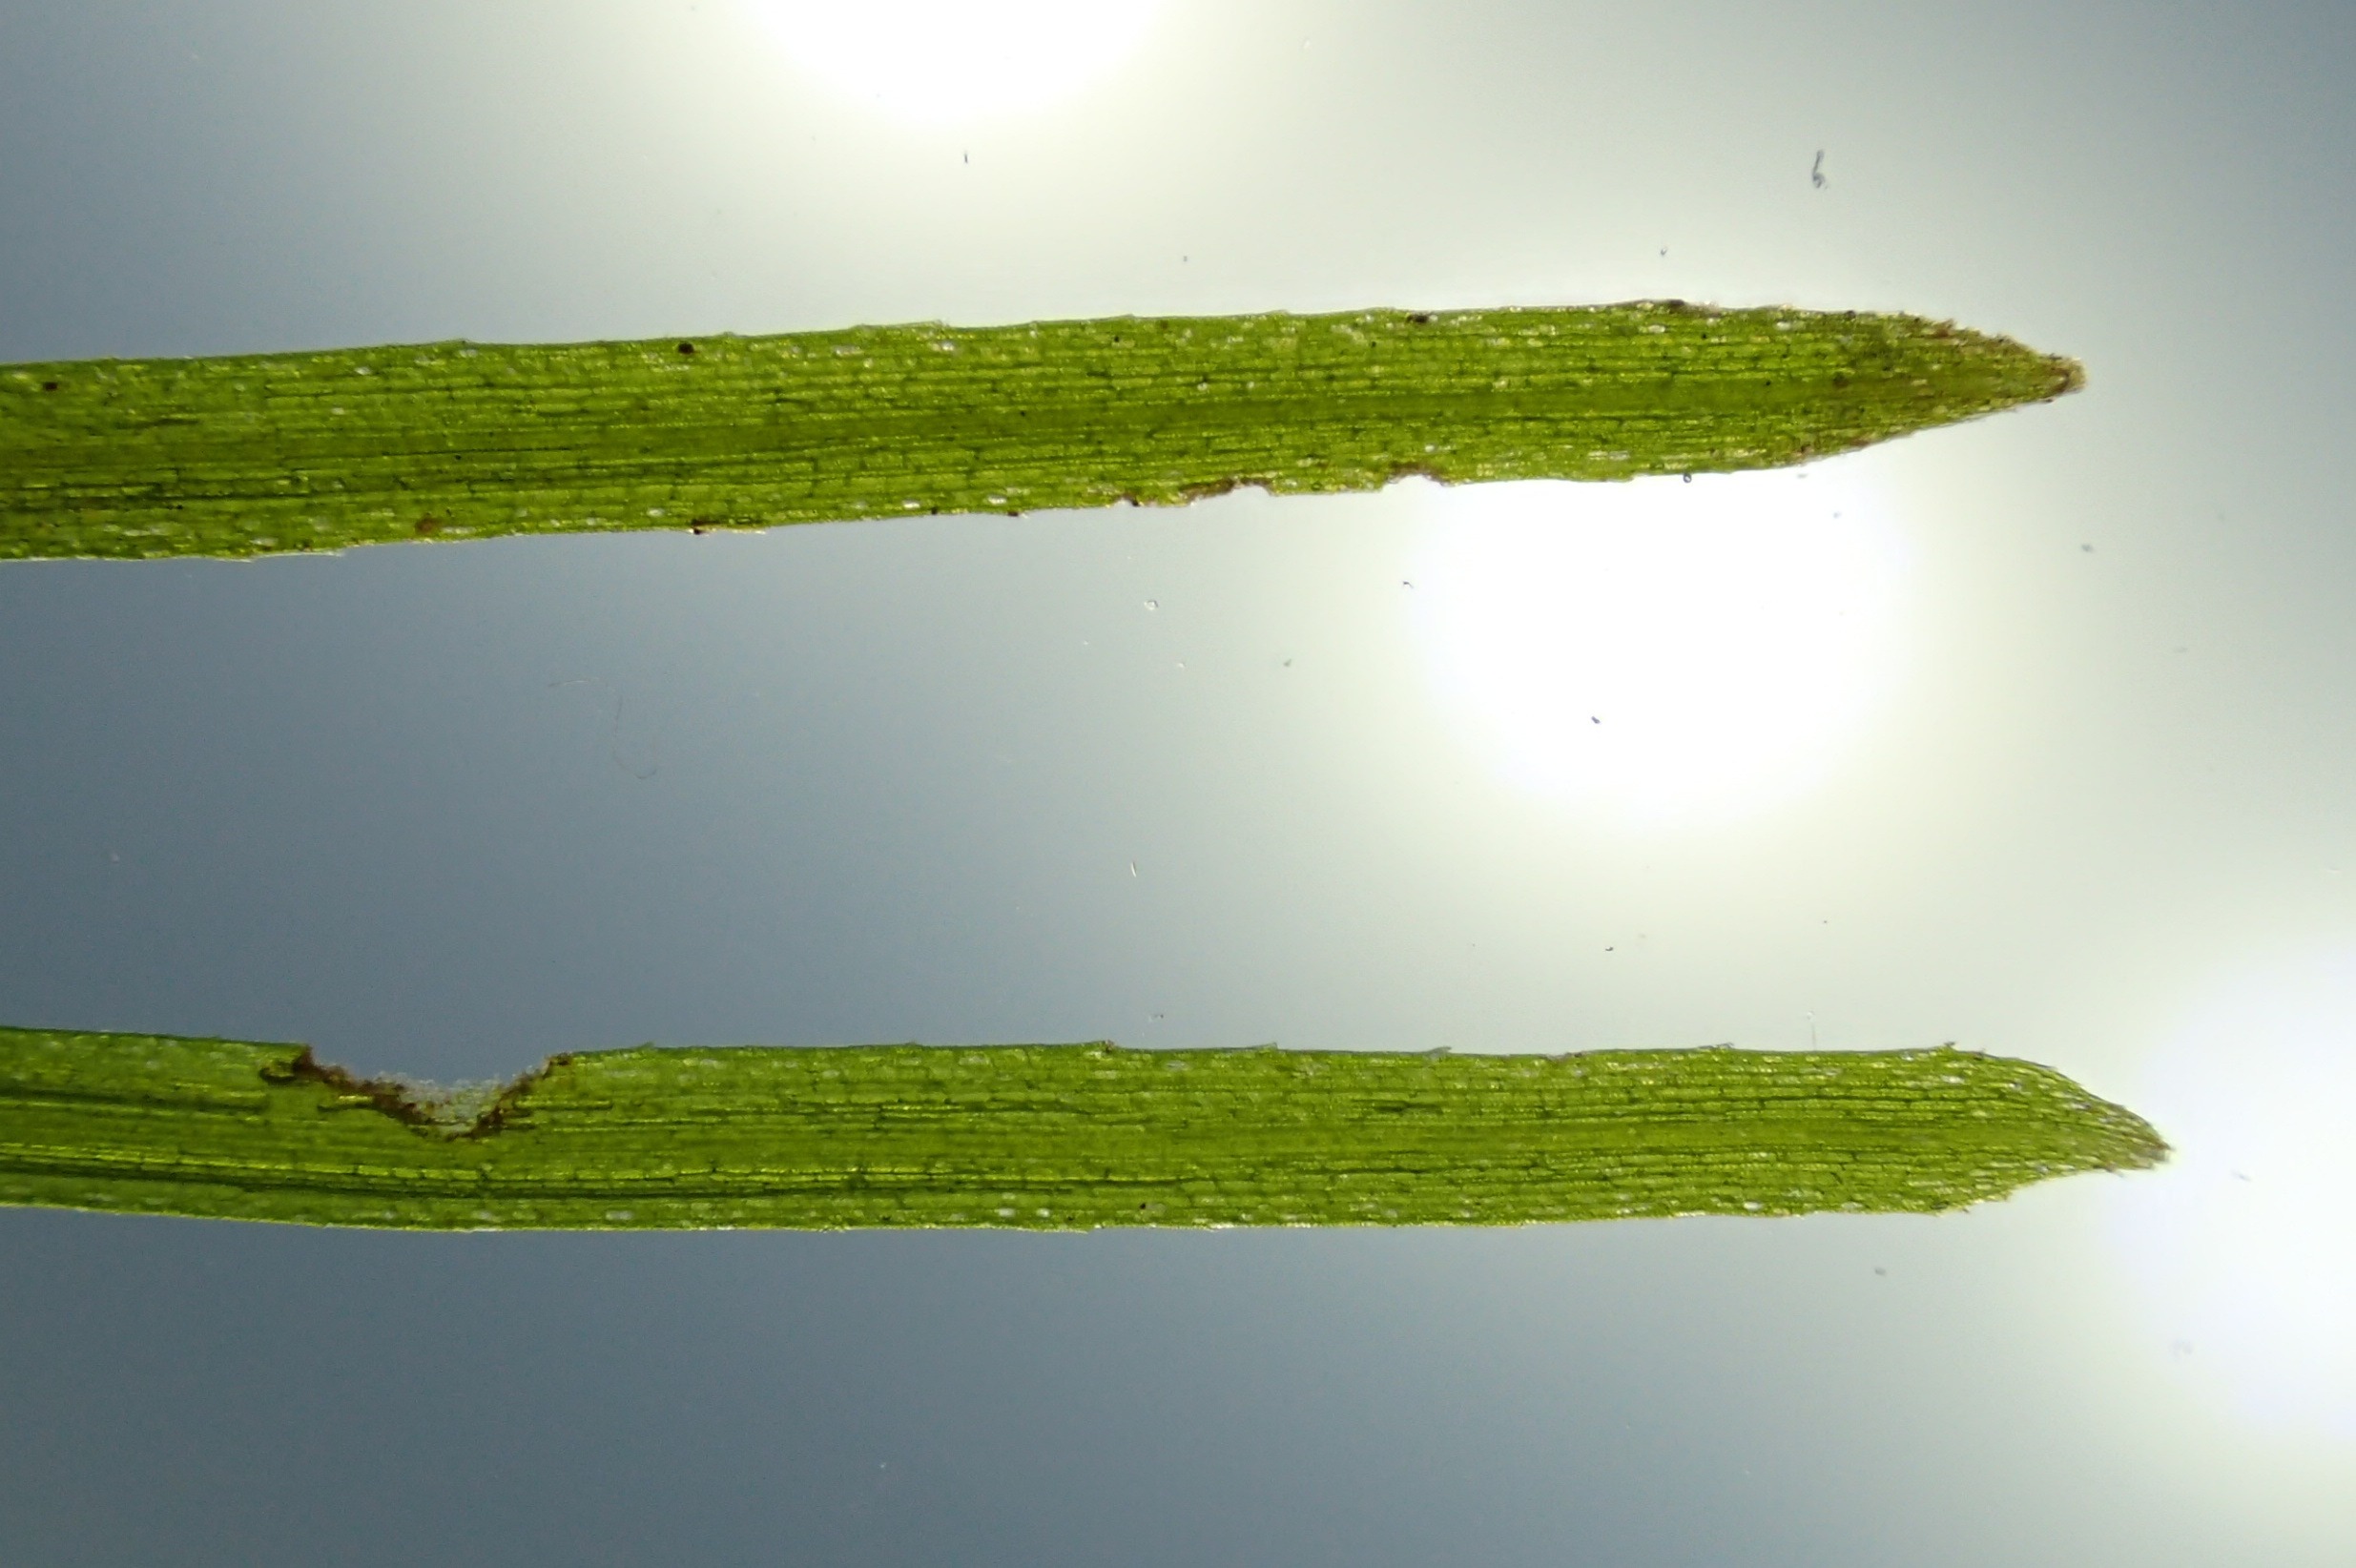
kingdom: Plantae
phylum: Tracheophyta
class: Liliopsida
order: Alismatales
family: Ruppiaceae
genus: Ruppia
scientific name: Ruppia maritima
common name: Almindelig havgræs
